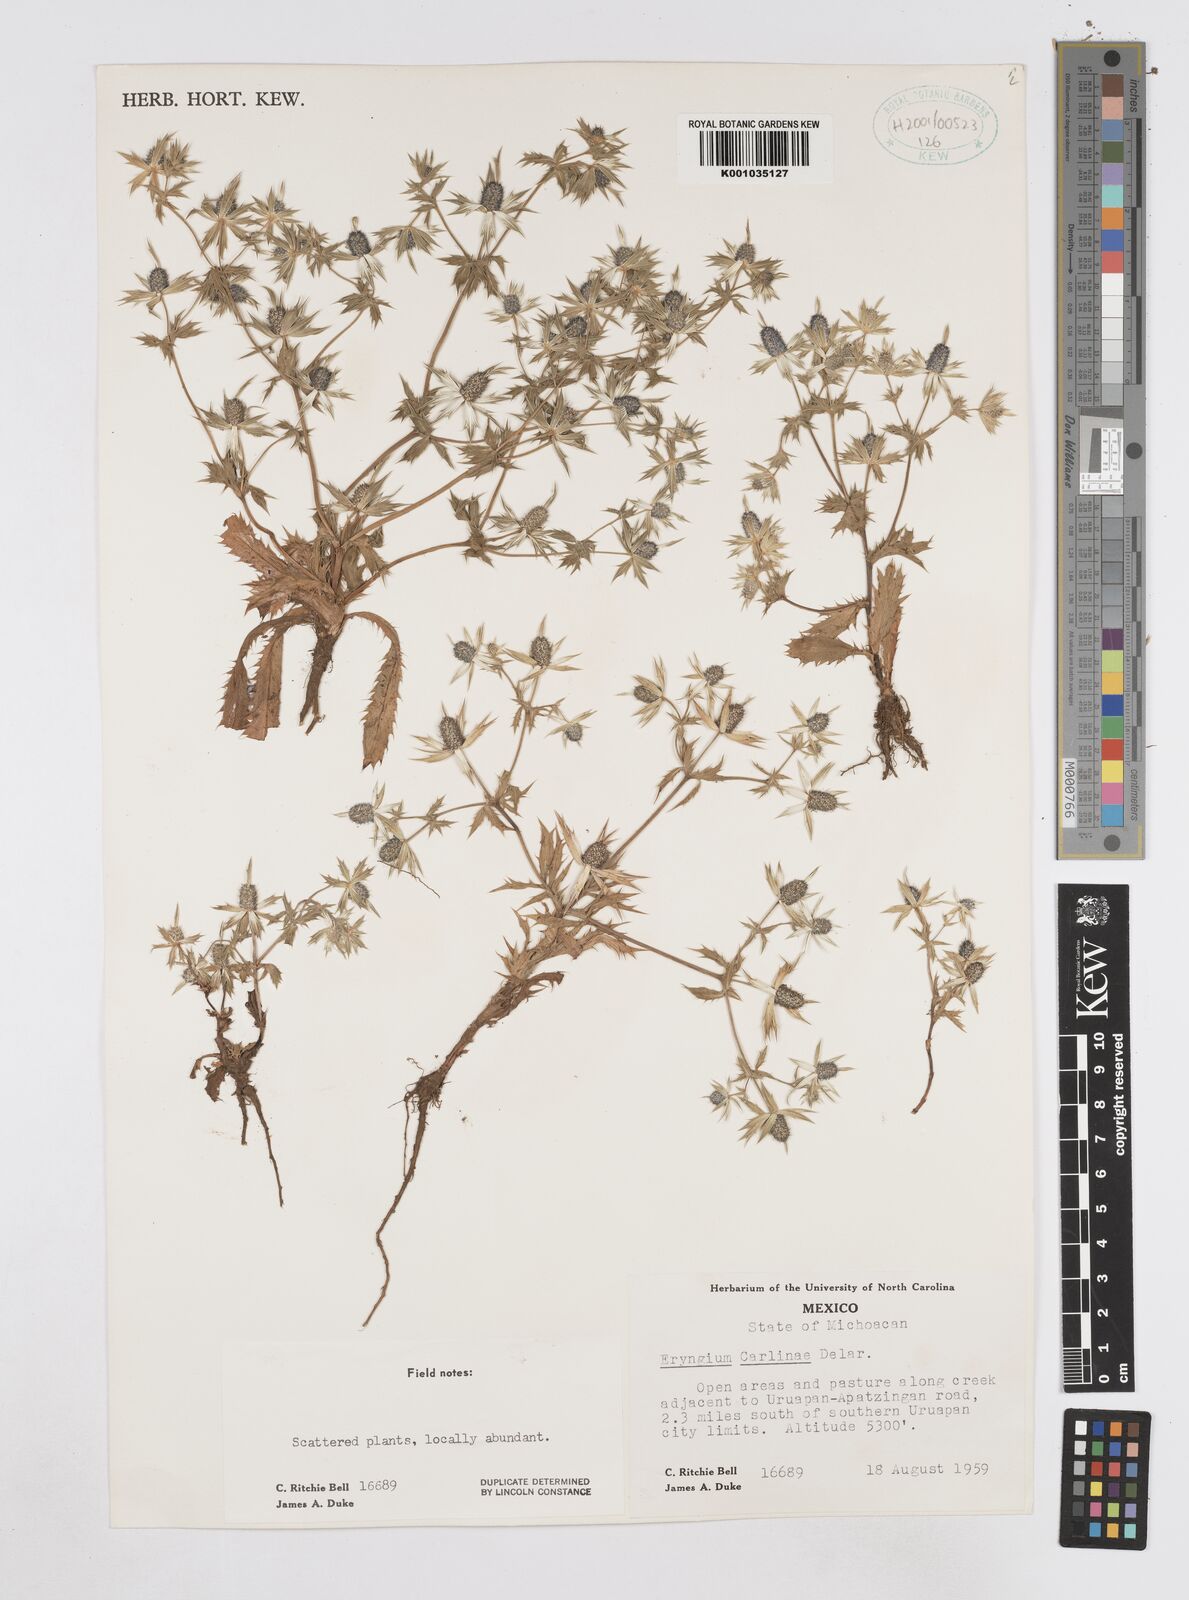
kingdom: Plantae
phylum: Tracheophyta
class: Magnoliopsida
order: Apiales
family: Apiaceae
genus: Eryngium
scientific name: Eryngium carlinae
